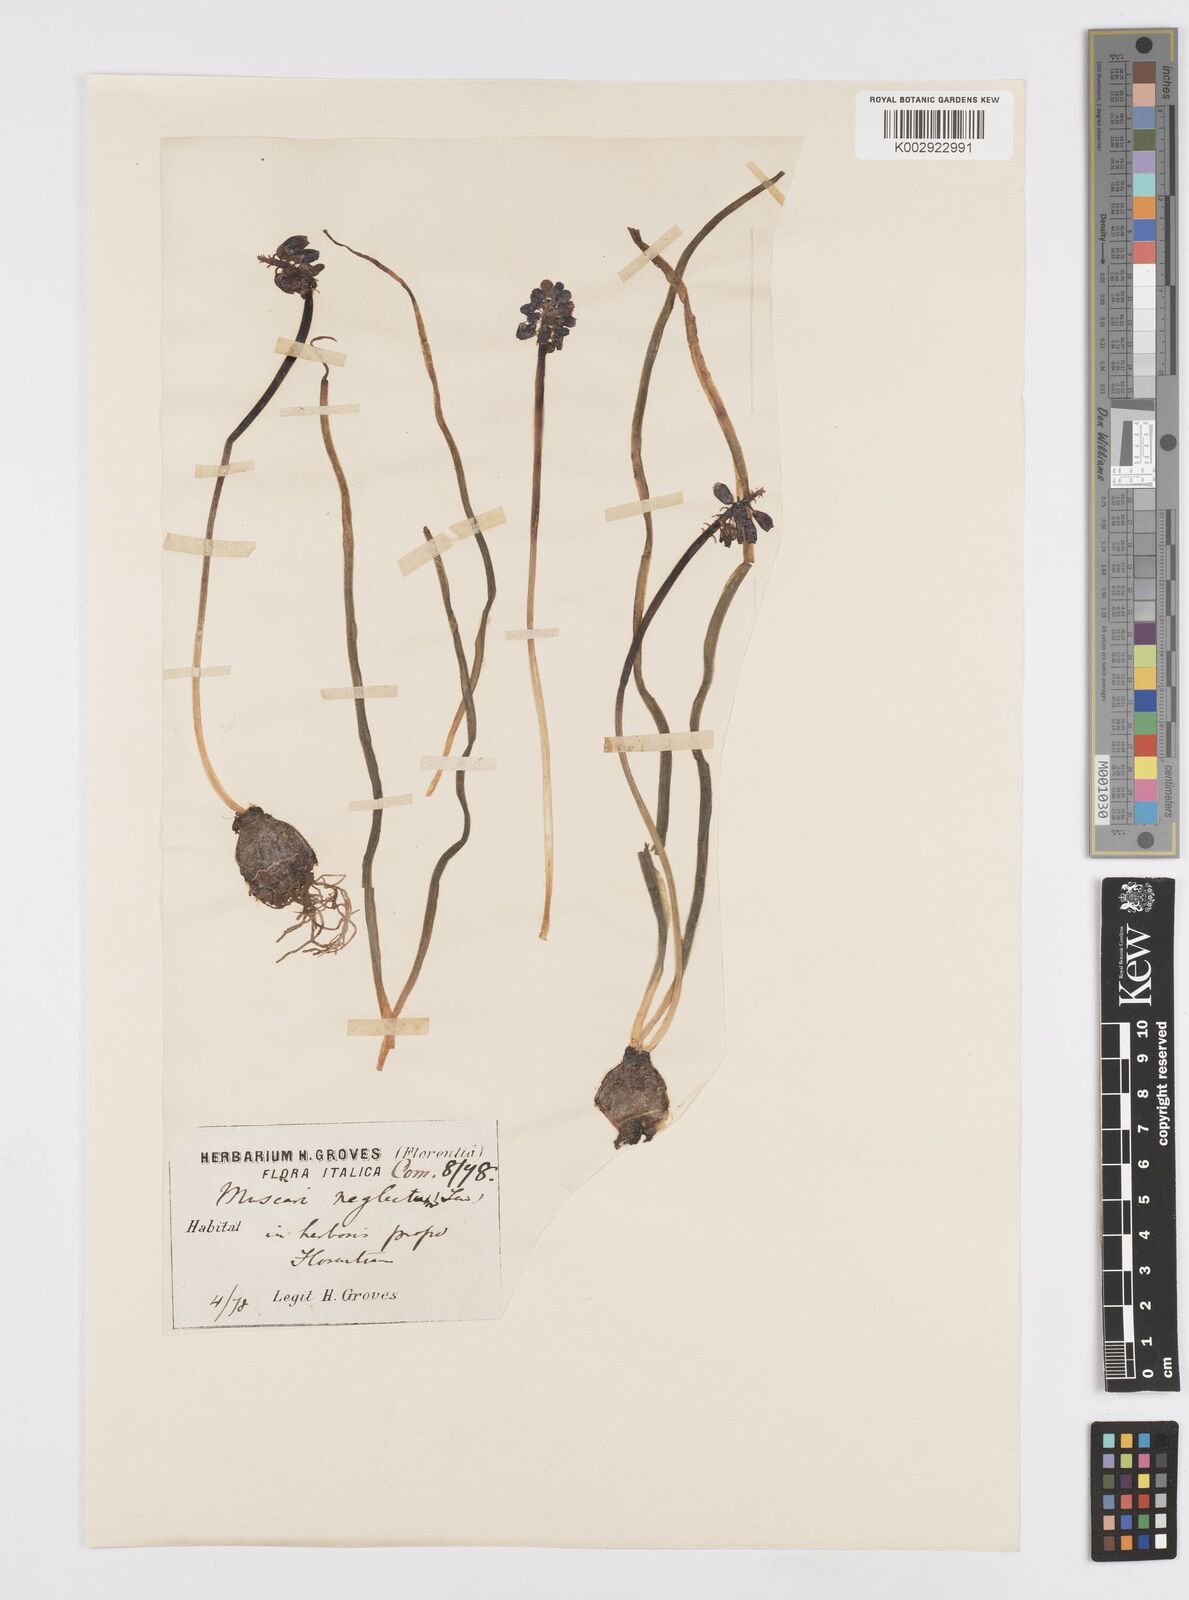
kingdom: Plantae
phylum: Tracheophyta
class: Liliopsida
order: Asparagales
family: Asparagaceae
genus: Muscari
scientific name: Muscari neglectum
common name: Grape-hyacinth
